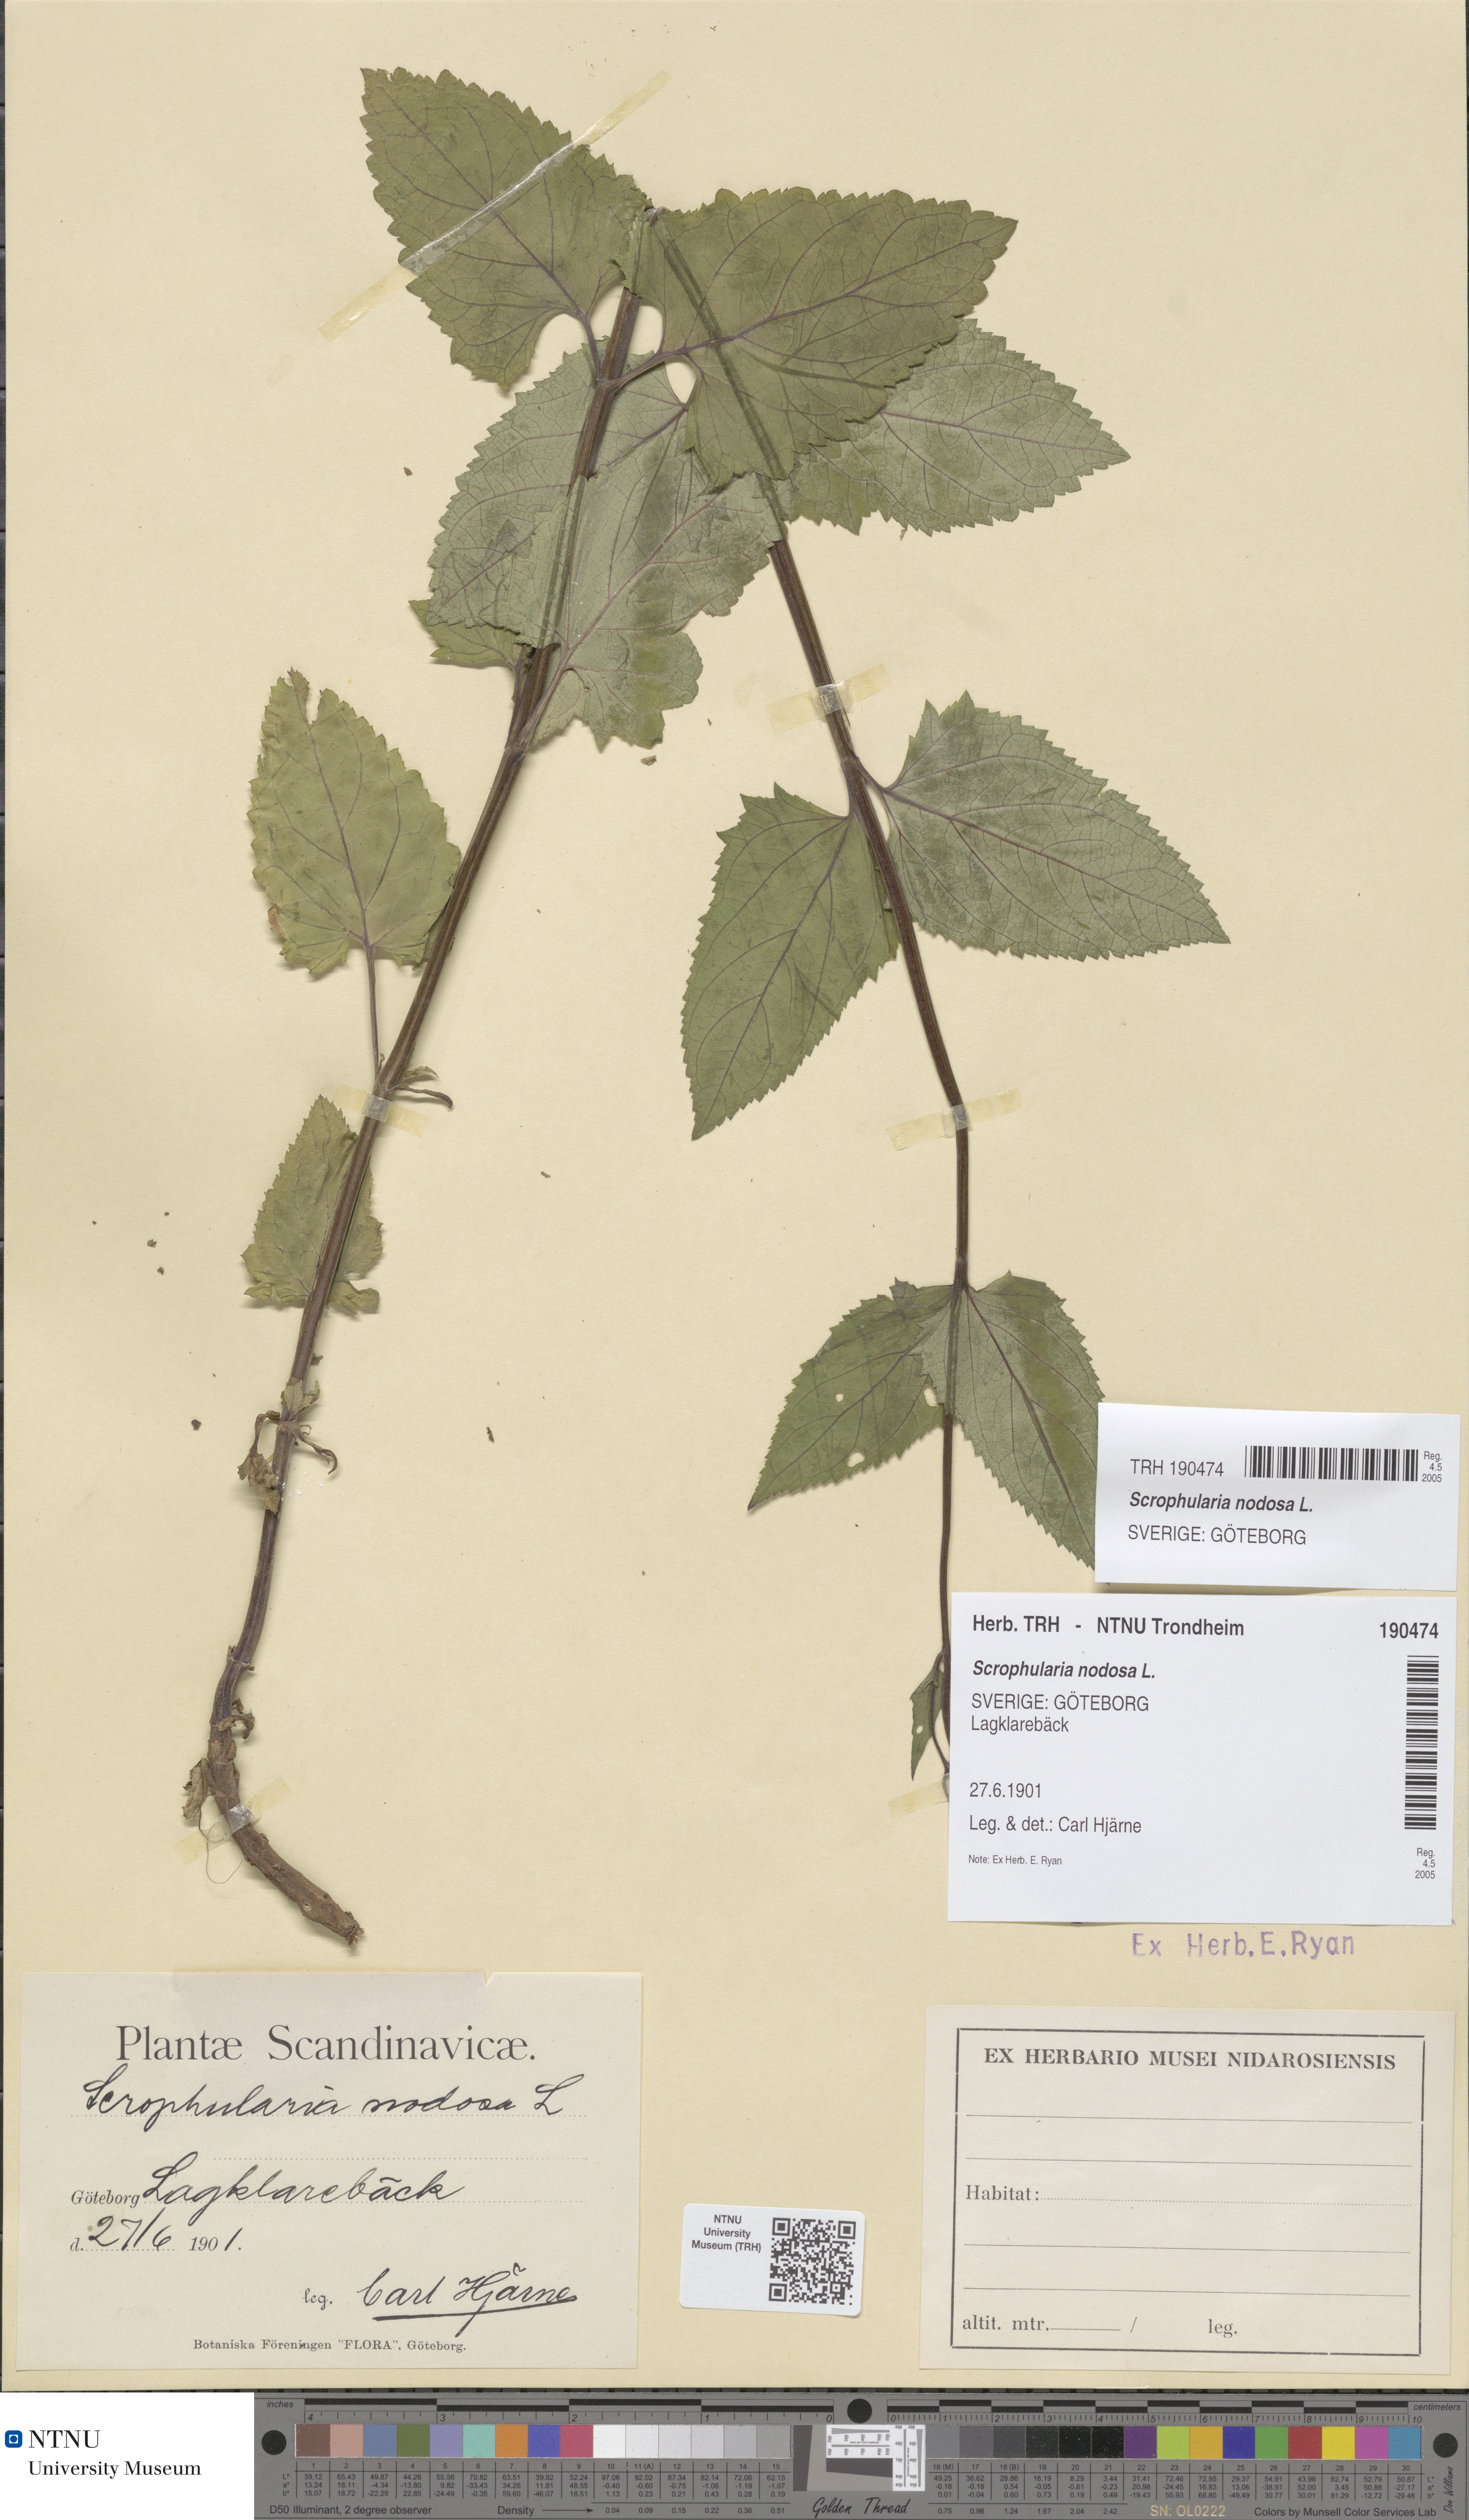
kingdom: Plantae
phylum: Tracheophyta
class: Magnoliopsida
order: Lamiales
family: Scrophulariaceae
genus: Scrophularia
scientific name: Scrophularia nodosa
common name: Common figwort
